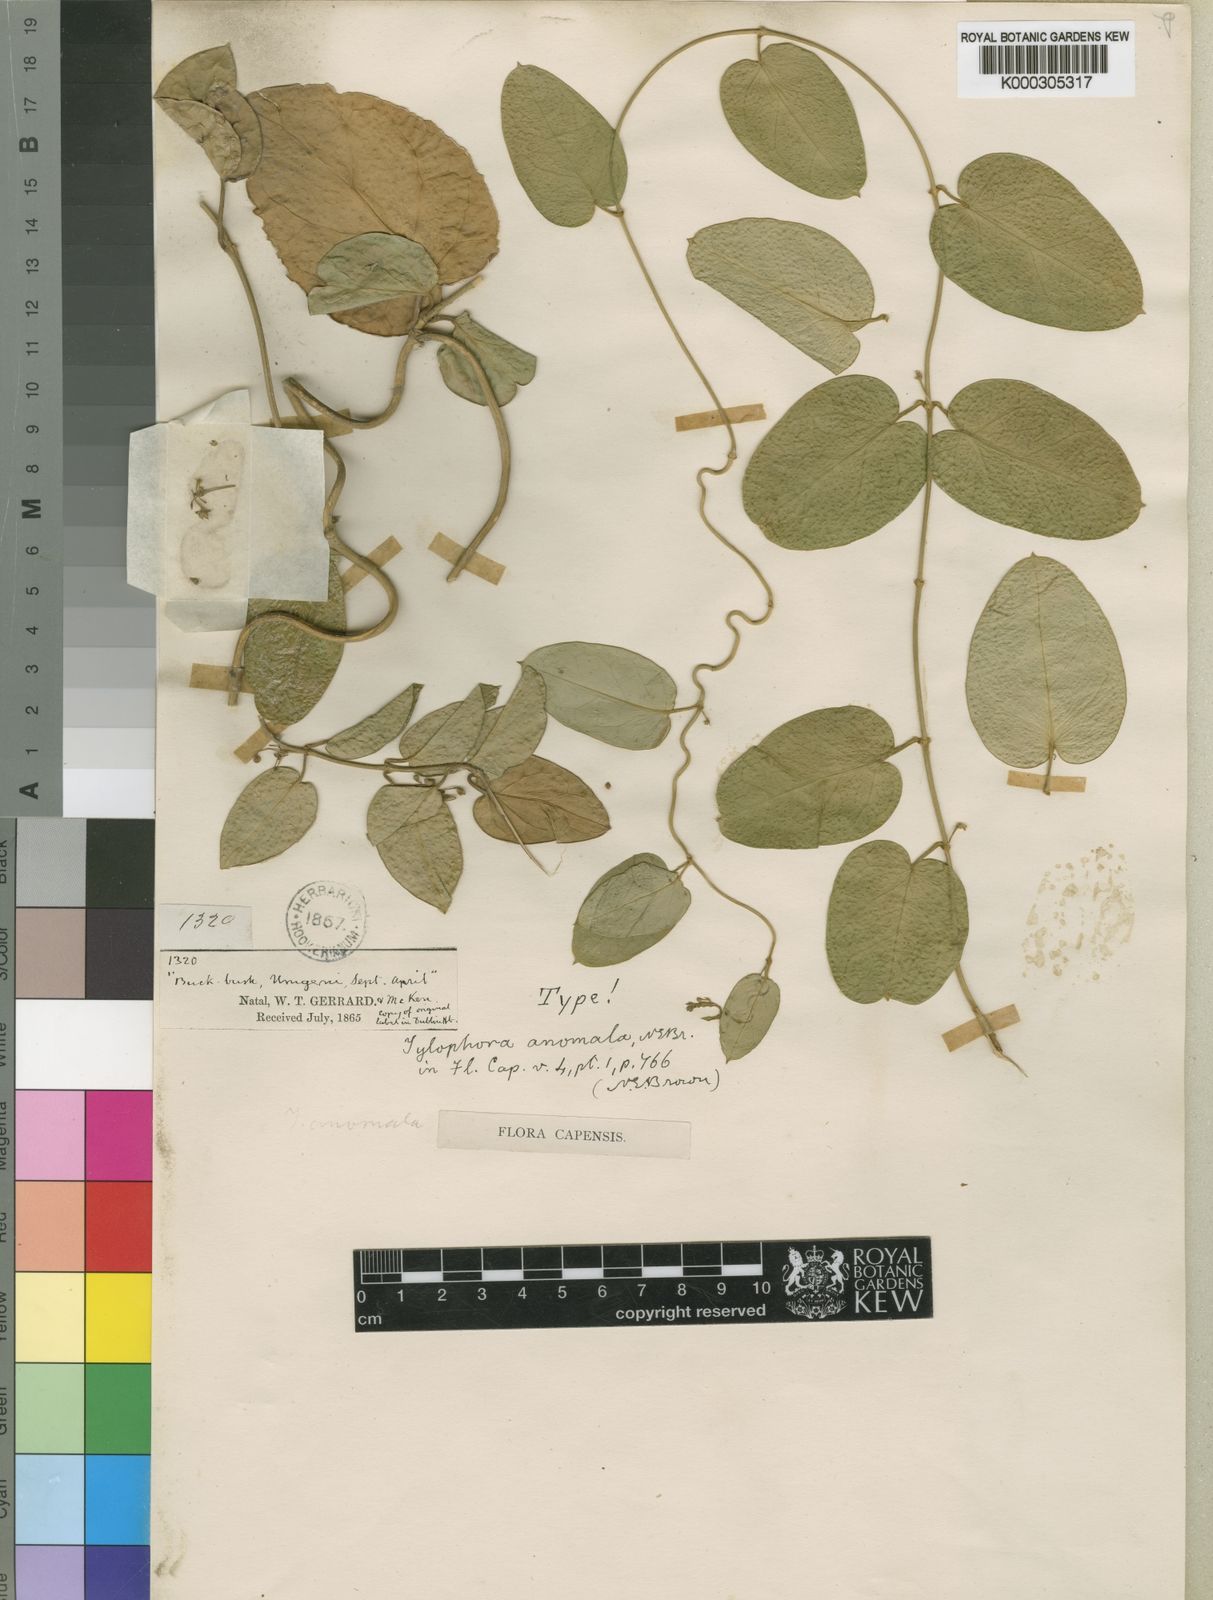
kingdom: Plantae
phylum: Tracheophyta
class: Magnoliopsida
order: Gentianales
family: Apocynaceae
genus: Vincetoxicum
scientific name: Vincetoxicum anomalum
